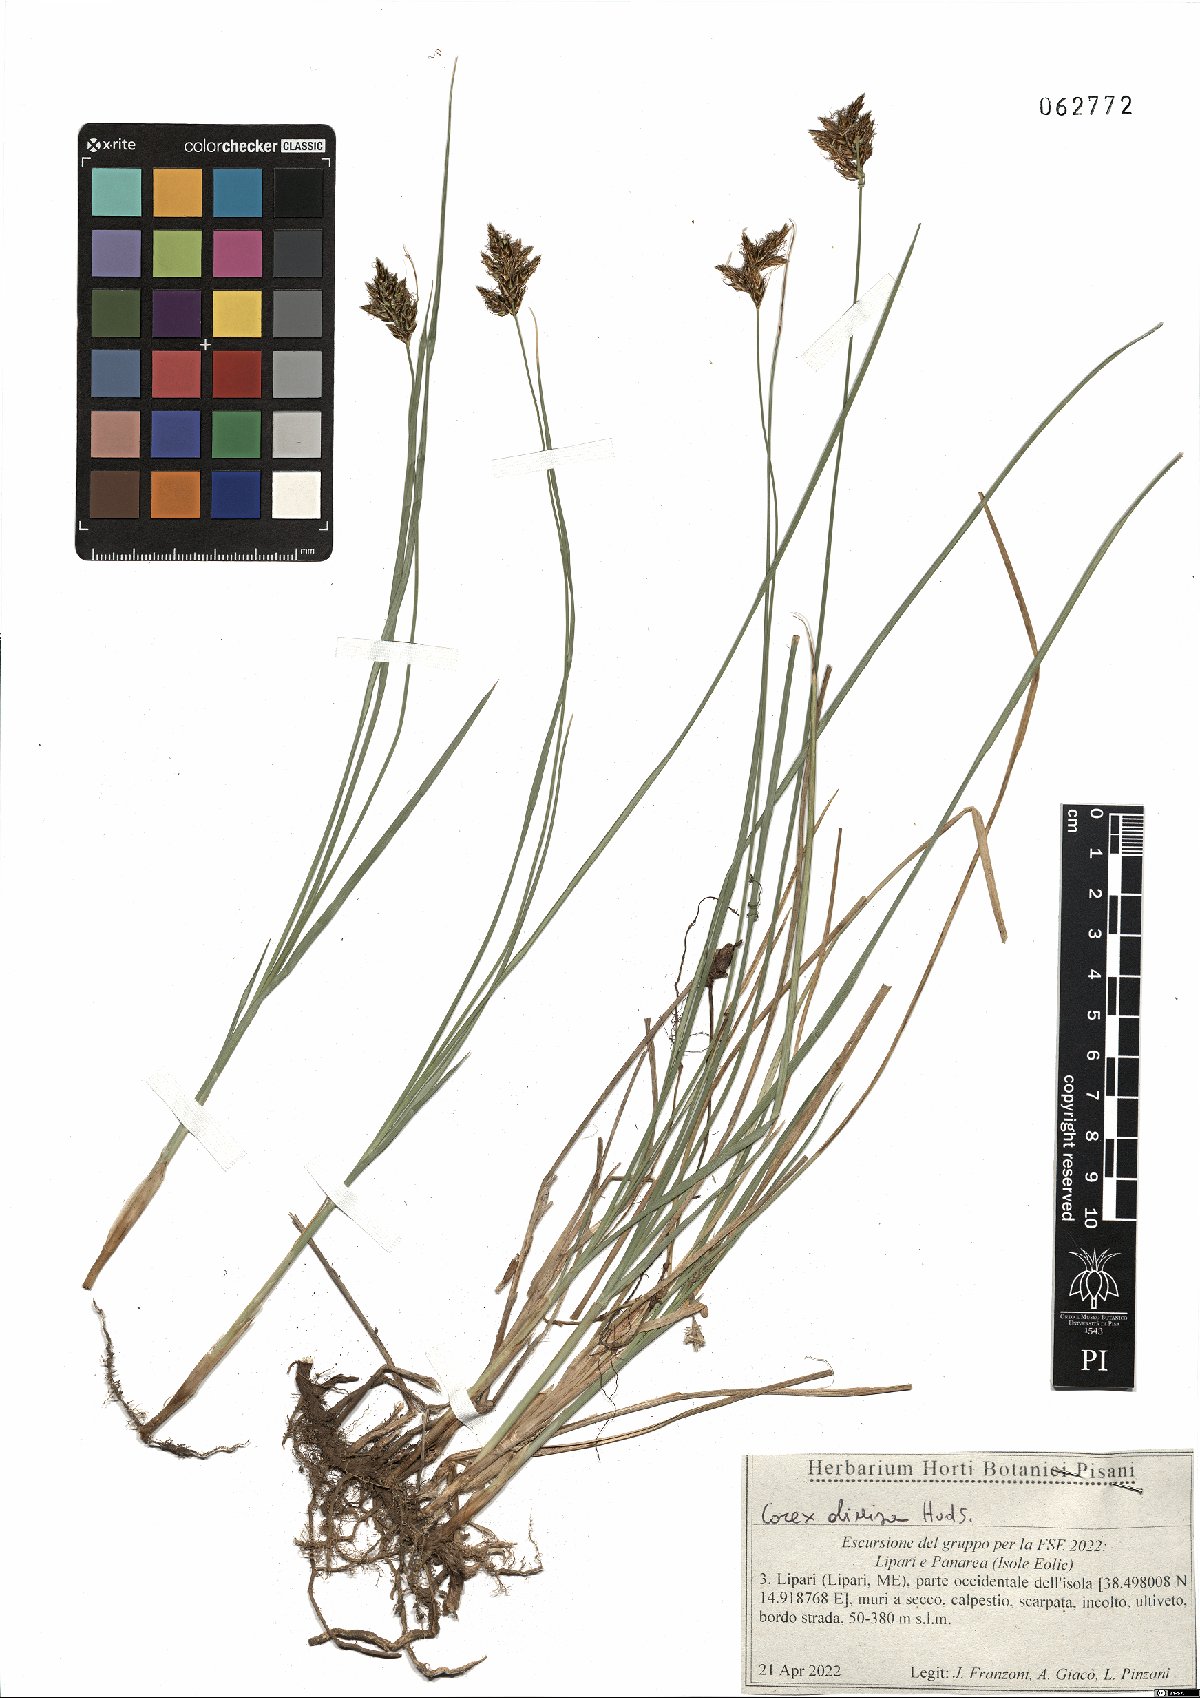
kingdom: Plantae
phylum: Tracheophyta
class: Liliopsida
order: Poales
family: Cyperaceae
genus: Carex
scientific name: Carex divisa
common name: Divided sedge
